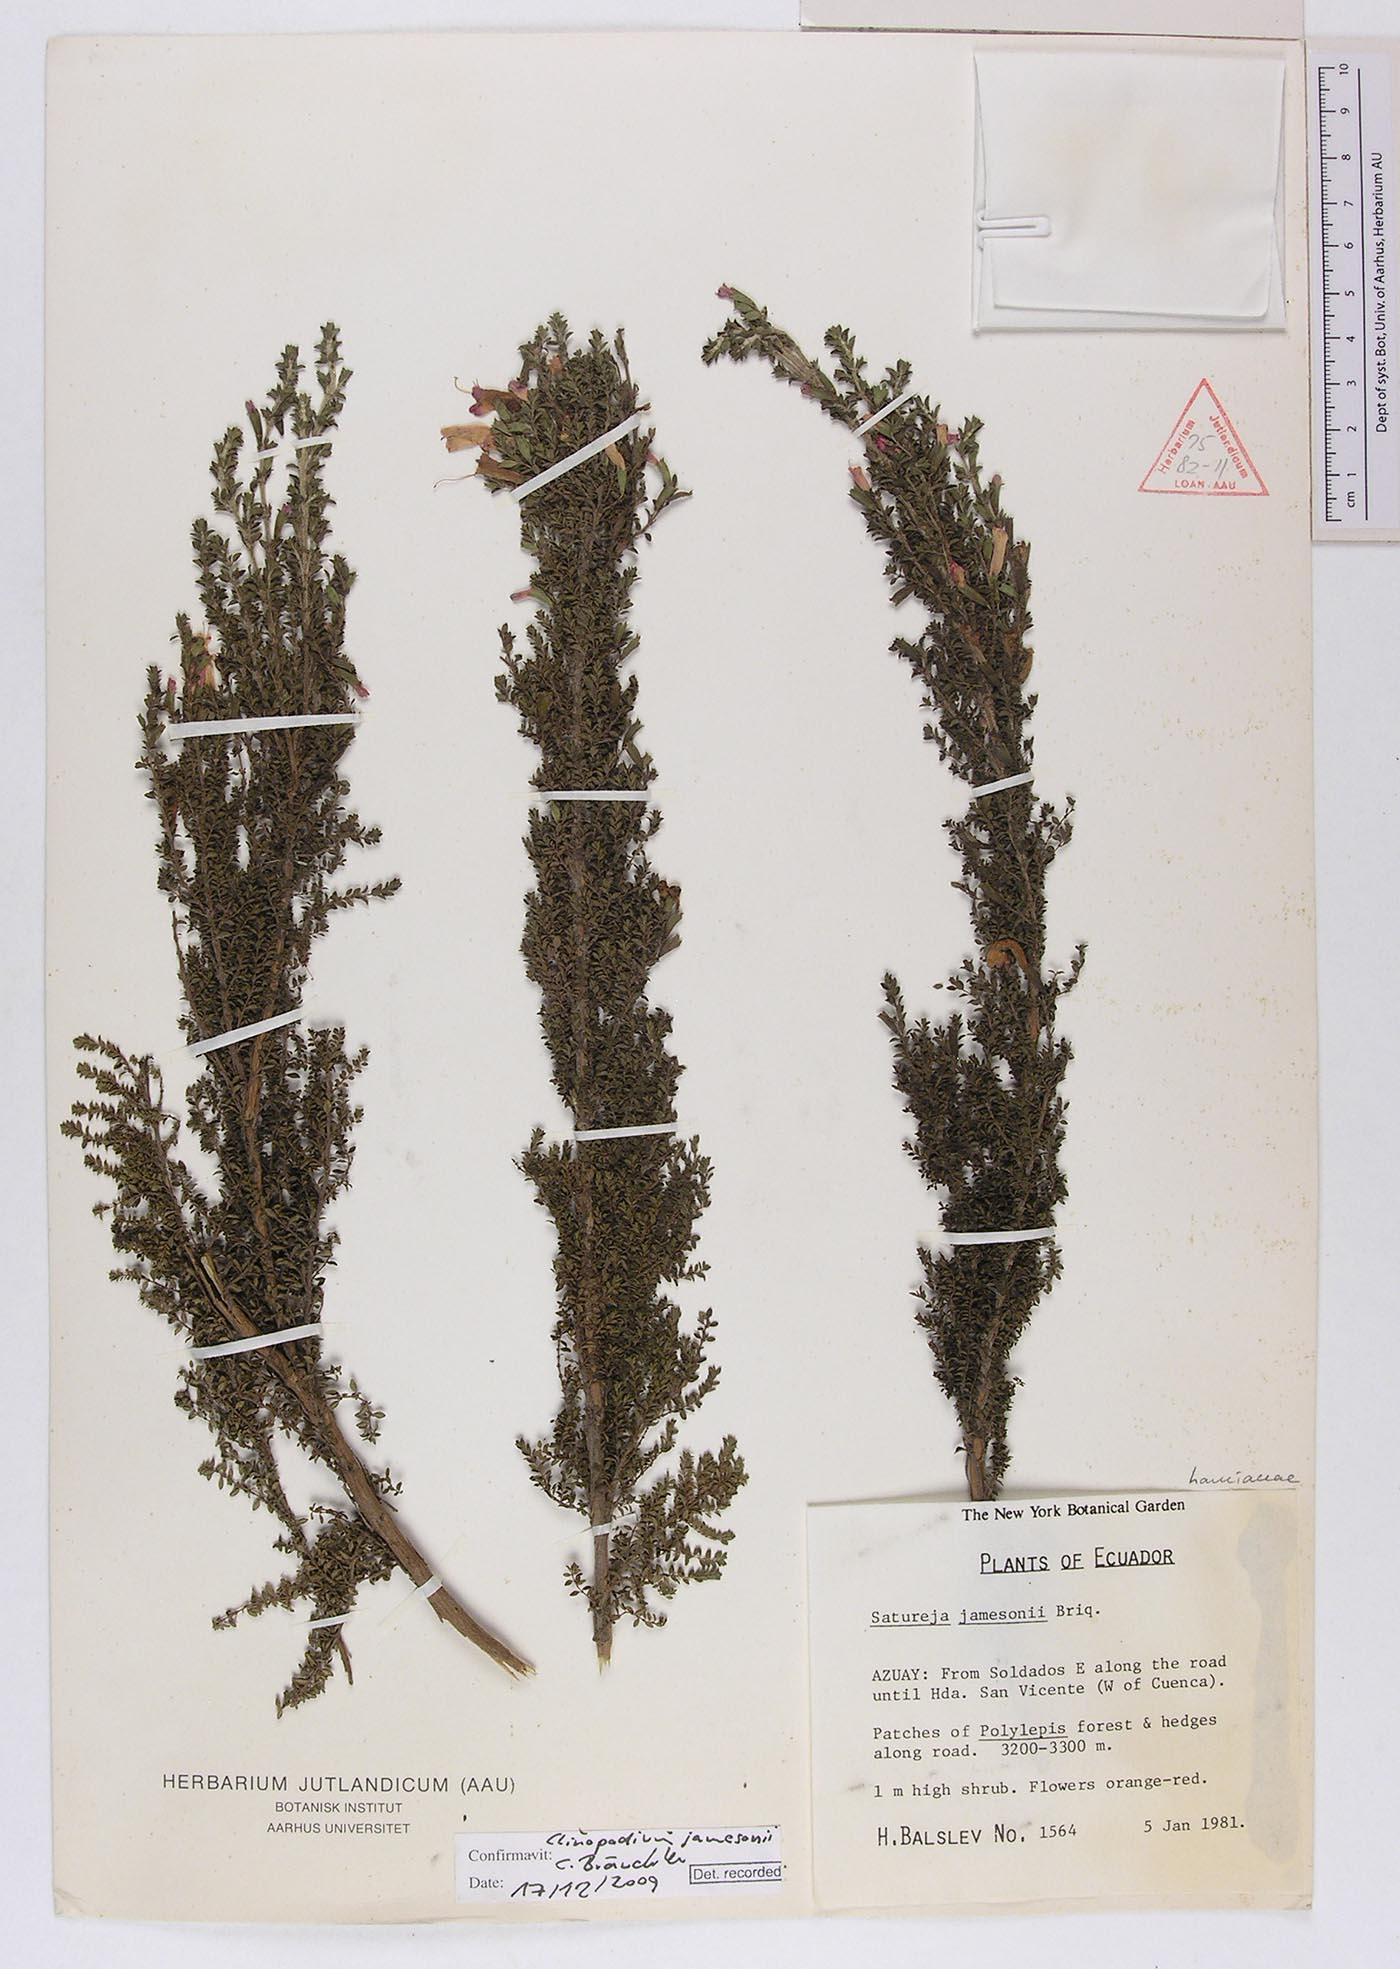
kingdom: Plantae
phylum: Tracheophyta
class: Magnoliopsida
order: Lamiales
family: Lamiaceae
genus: Clinopodium
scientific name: Clinopodium jamesonii
